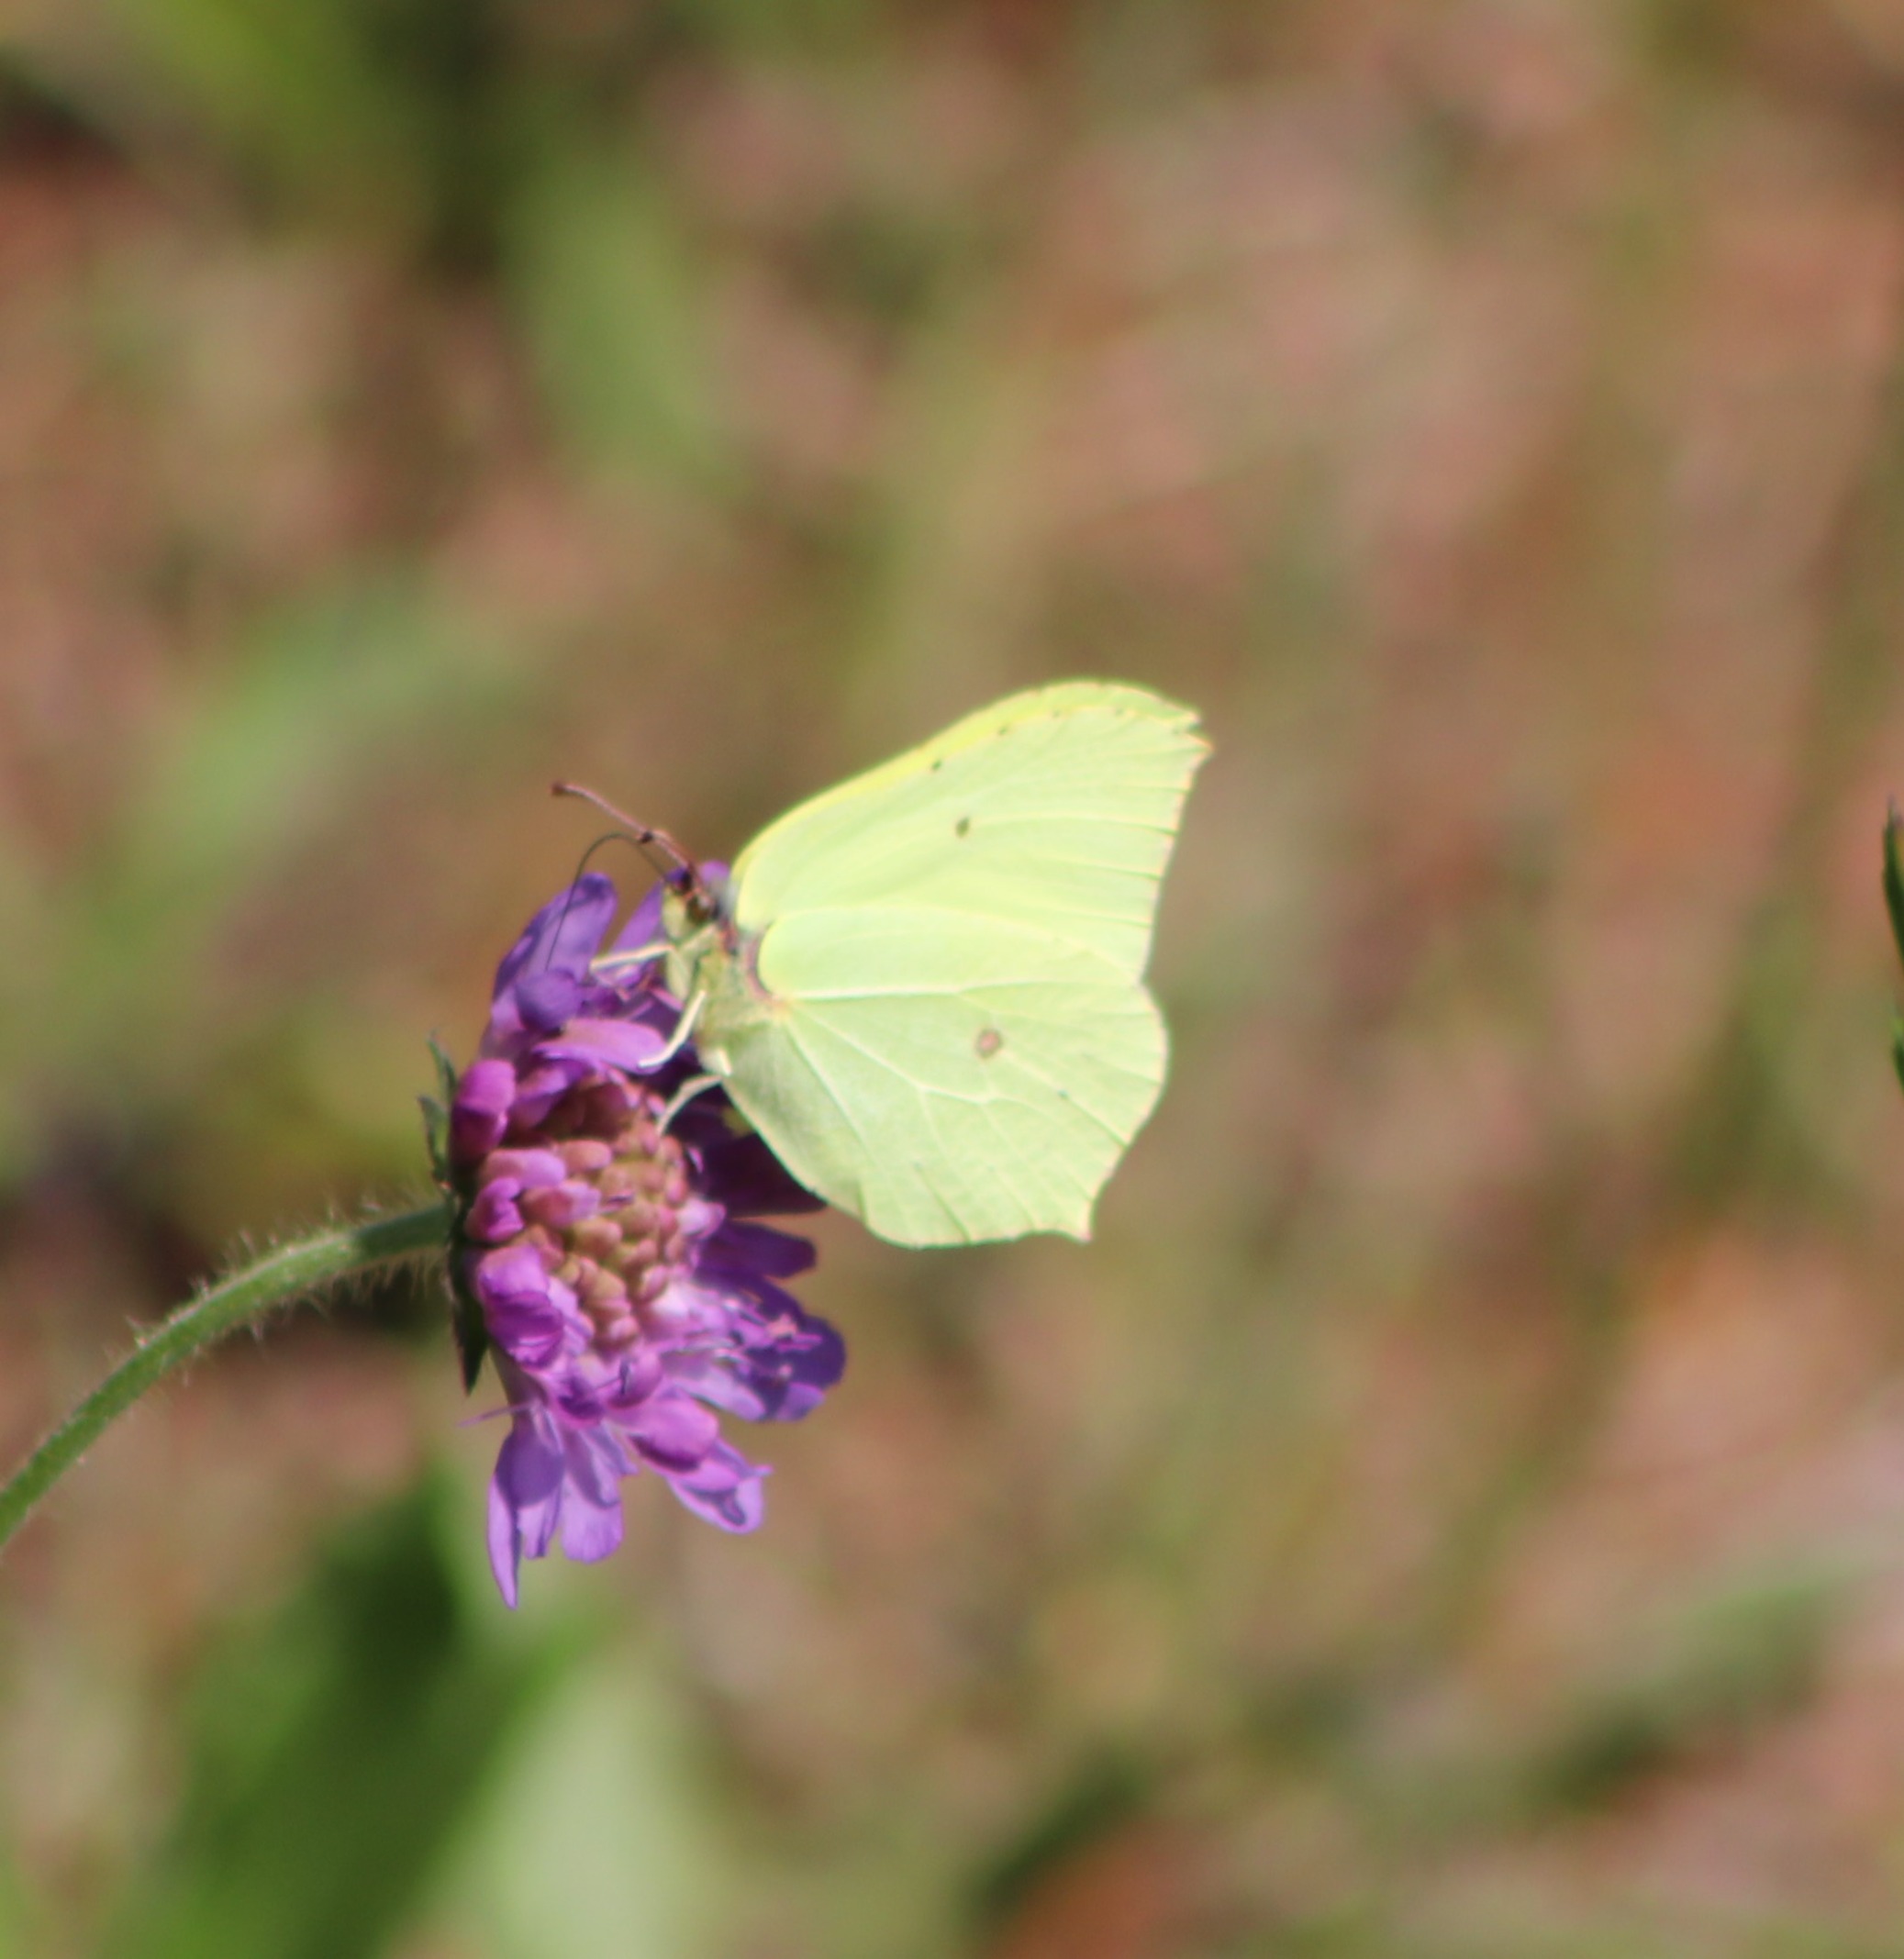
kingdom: Animalia
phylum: Arthropoda
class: Insecta
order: Lepidoptera
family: Pieridae
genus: Gonepteryx
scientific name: Gonepteryx rhamni
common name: Citronsommerfugl
